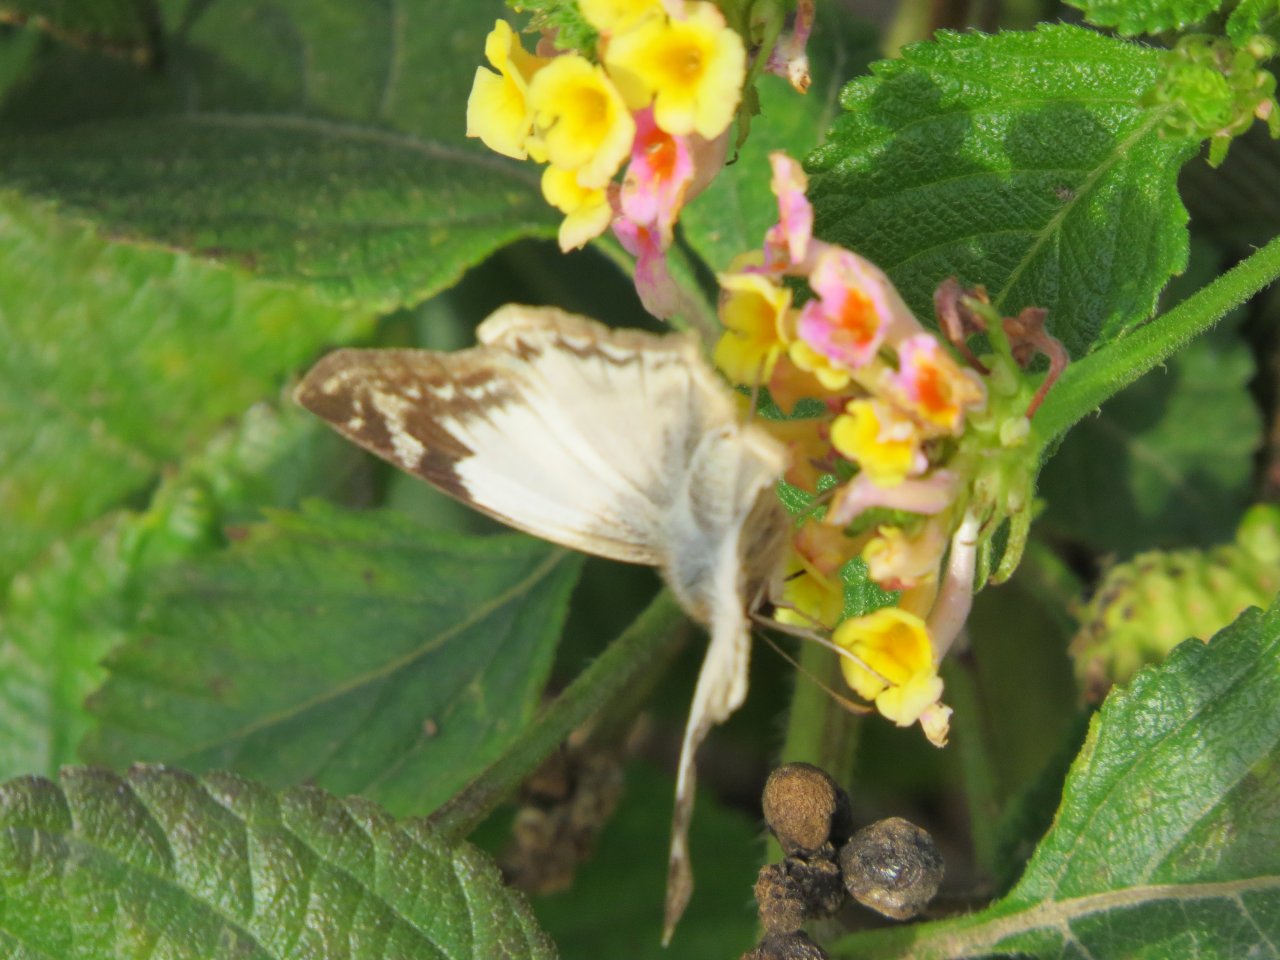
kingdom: Animalia
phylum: Arthropoda
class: Insecta
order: Lepidoptera
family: Hesperiidae
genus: Heliopetes
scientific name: Heliopetes laviana
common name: Laviana White-Skipper
